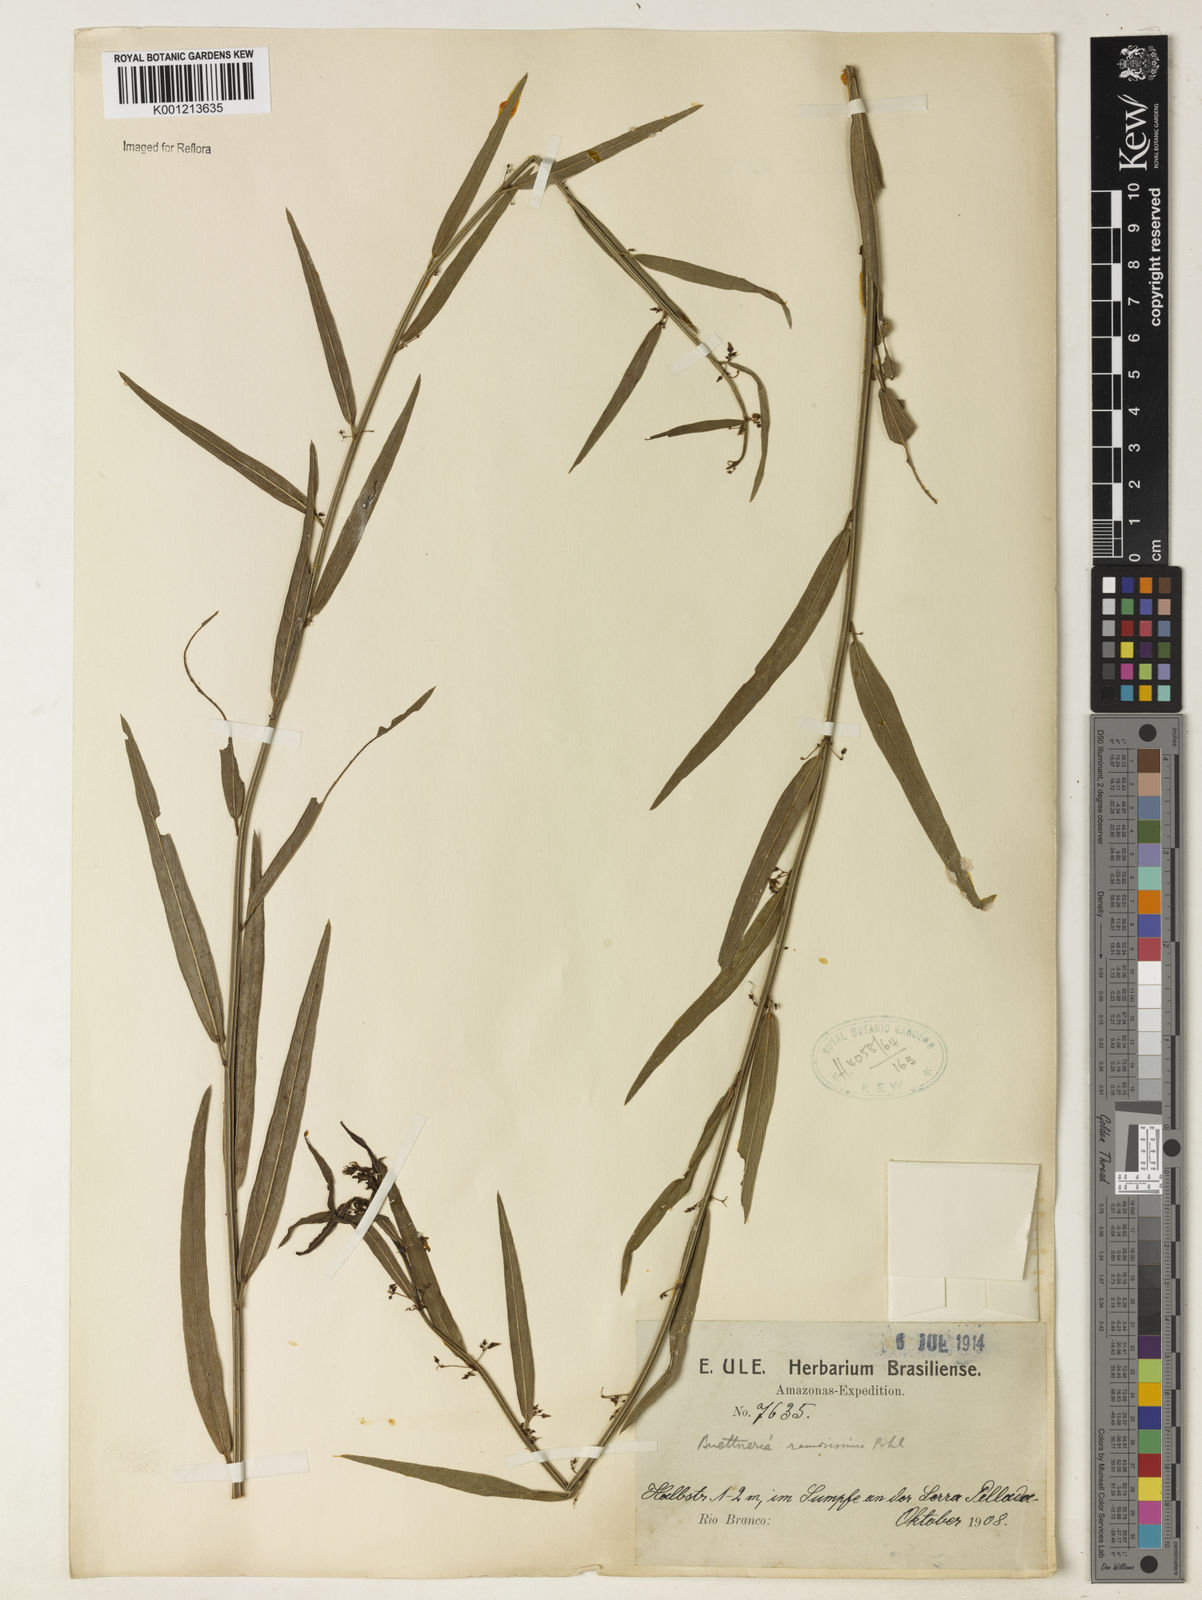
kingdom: Plantae
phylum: Tracheophyta
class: Magnoliopsida
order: Malvales
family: Malvaceae
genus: Byttneria
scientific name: Byttneria ramosissima
